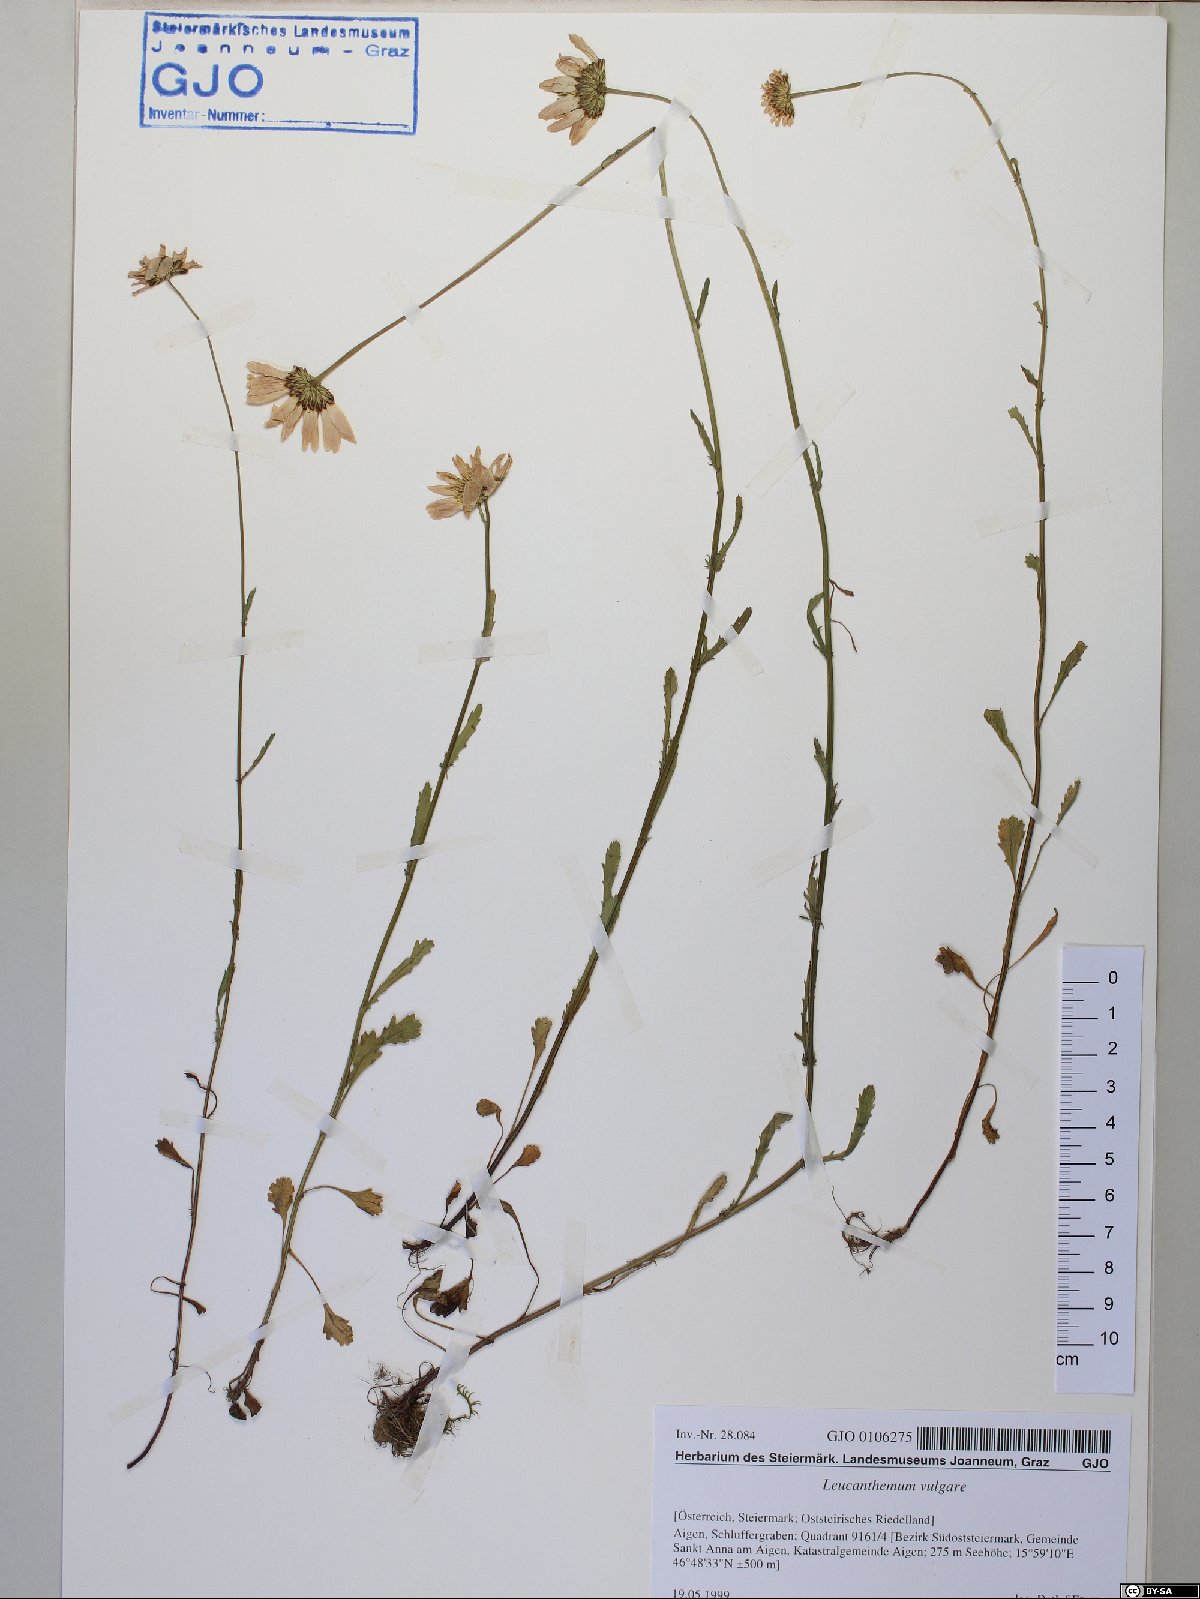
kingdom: Plantae
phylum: Tracheophyta
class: Magnoliopsida
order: Asterales
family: Asteraceae
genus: Leucanthemum
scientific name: Leucanthemum vulgare
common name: Oxeye daisy
